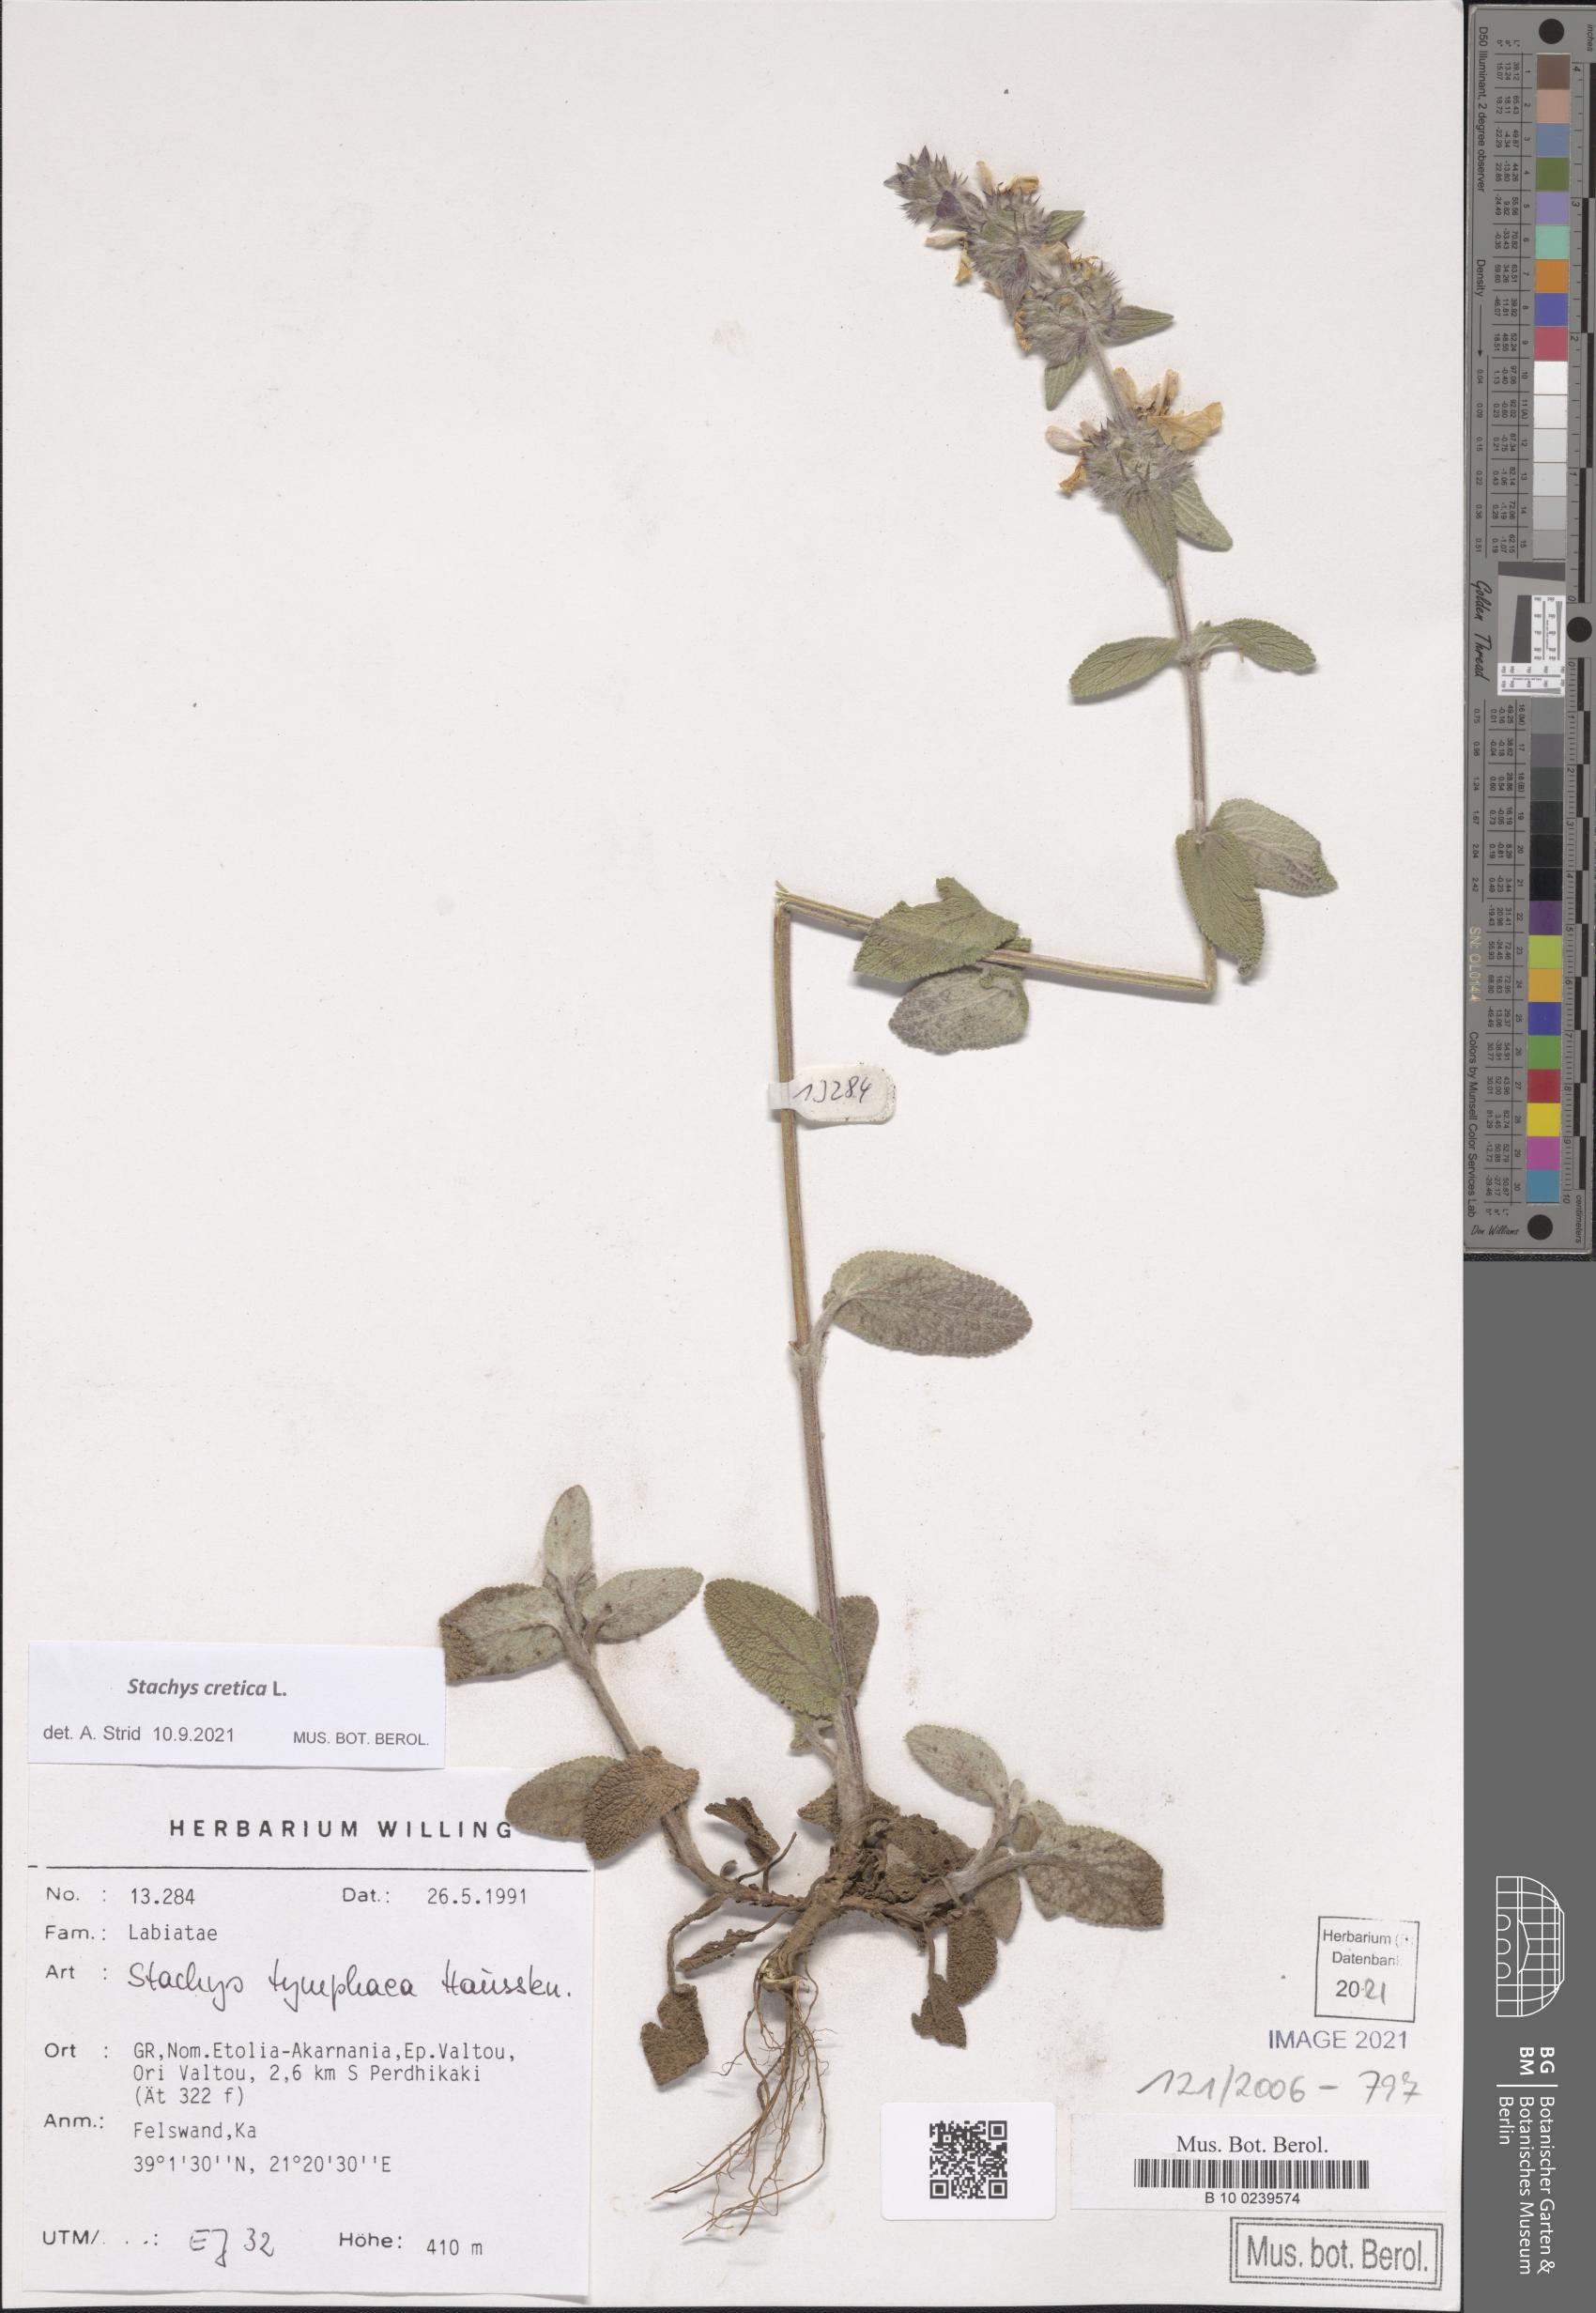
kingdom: Plantae
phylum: Tracheophyta
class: Magnoliopsida
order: Lamiales
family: Lamiaceae
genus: Stachys
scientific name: Stachys cretica
